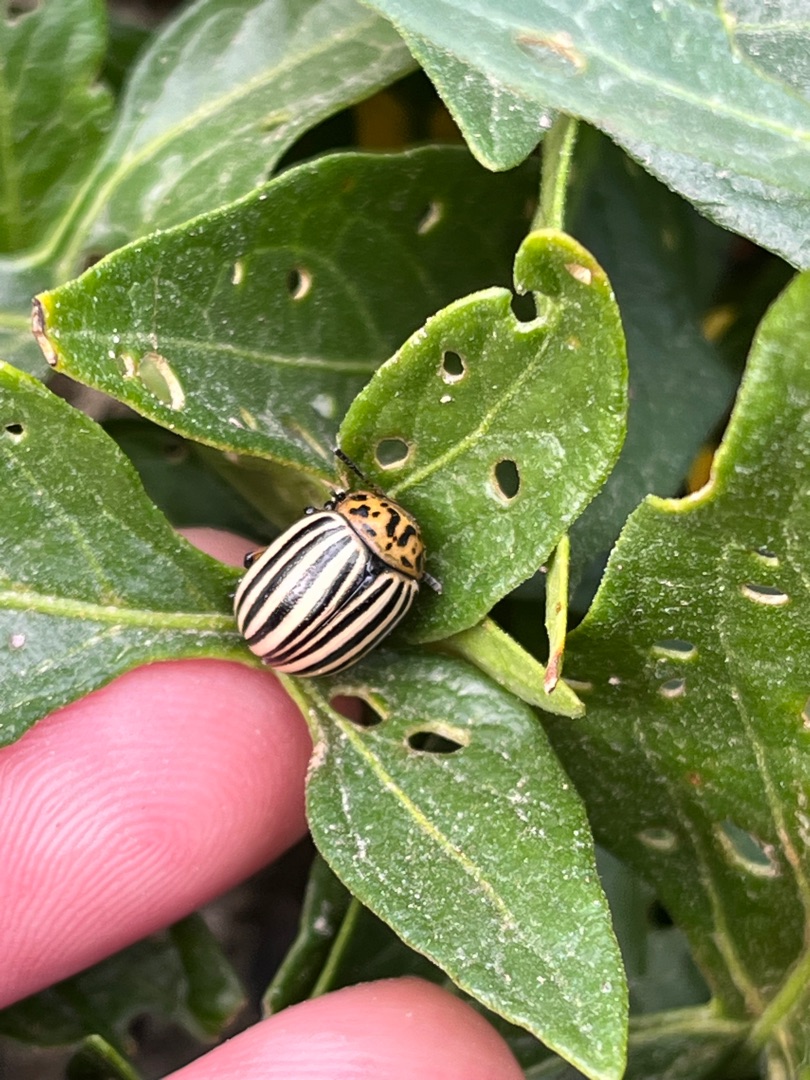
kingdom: Animalia
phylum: Arthropoda
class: Insecta
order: Coleoptera
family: Chrysomelidae
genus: Leptinotarsa
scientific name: Leptinotarsa decemlineata
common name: Coloradobille
